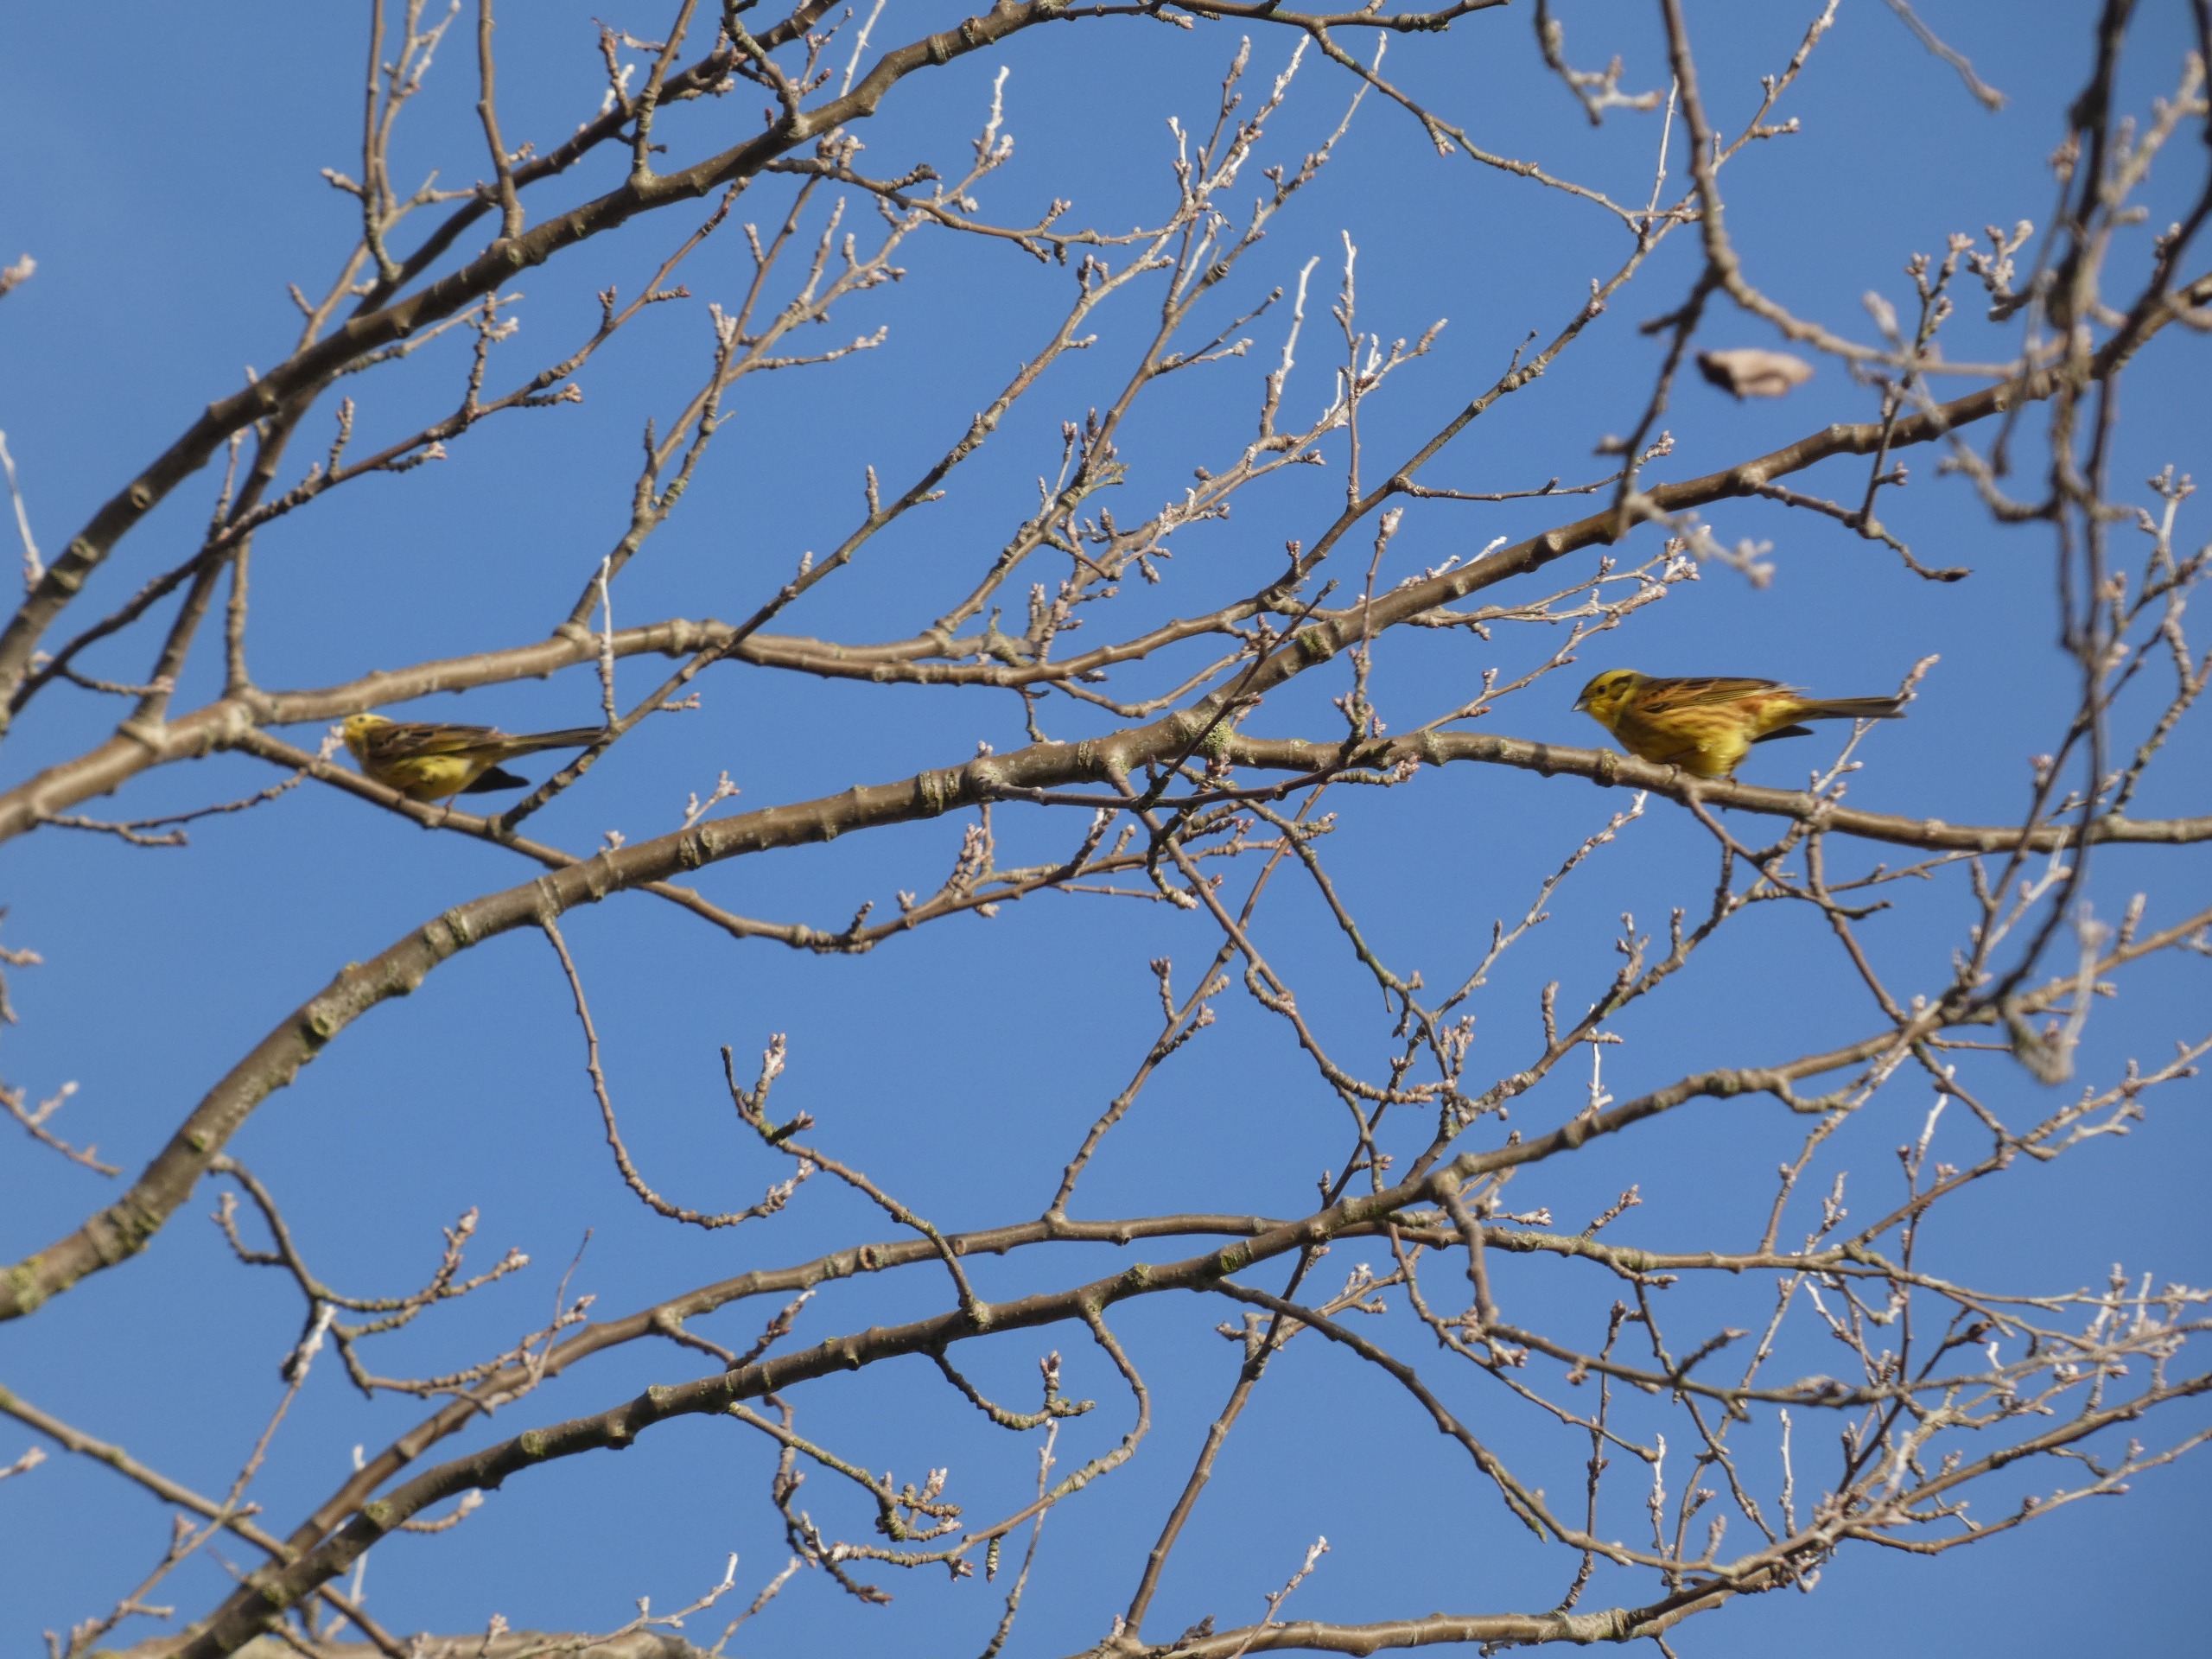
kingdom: Animalia
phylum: Chordata
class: Aves
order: Passeriformes
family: Emberizidae
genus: Emberiza
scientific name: Emberiza citrinella
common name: Gulspurv
